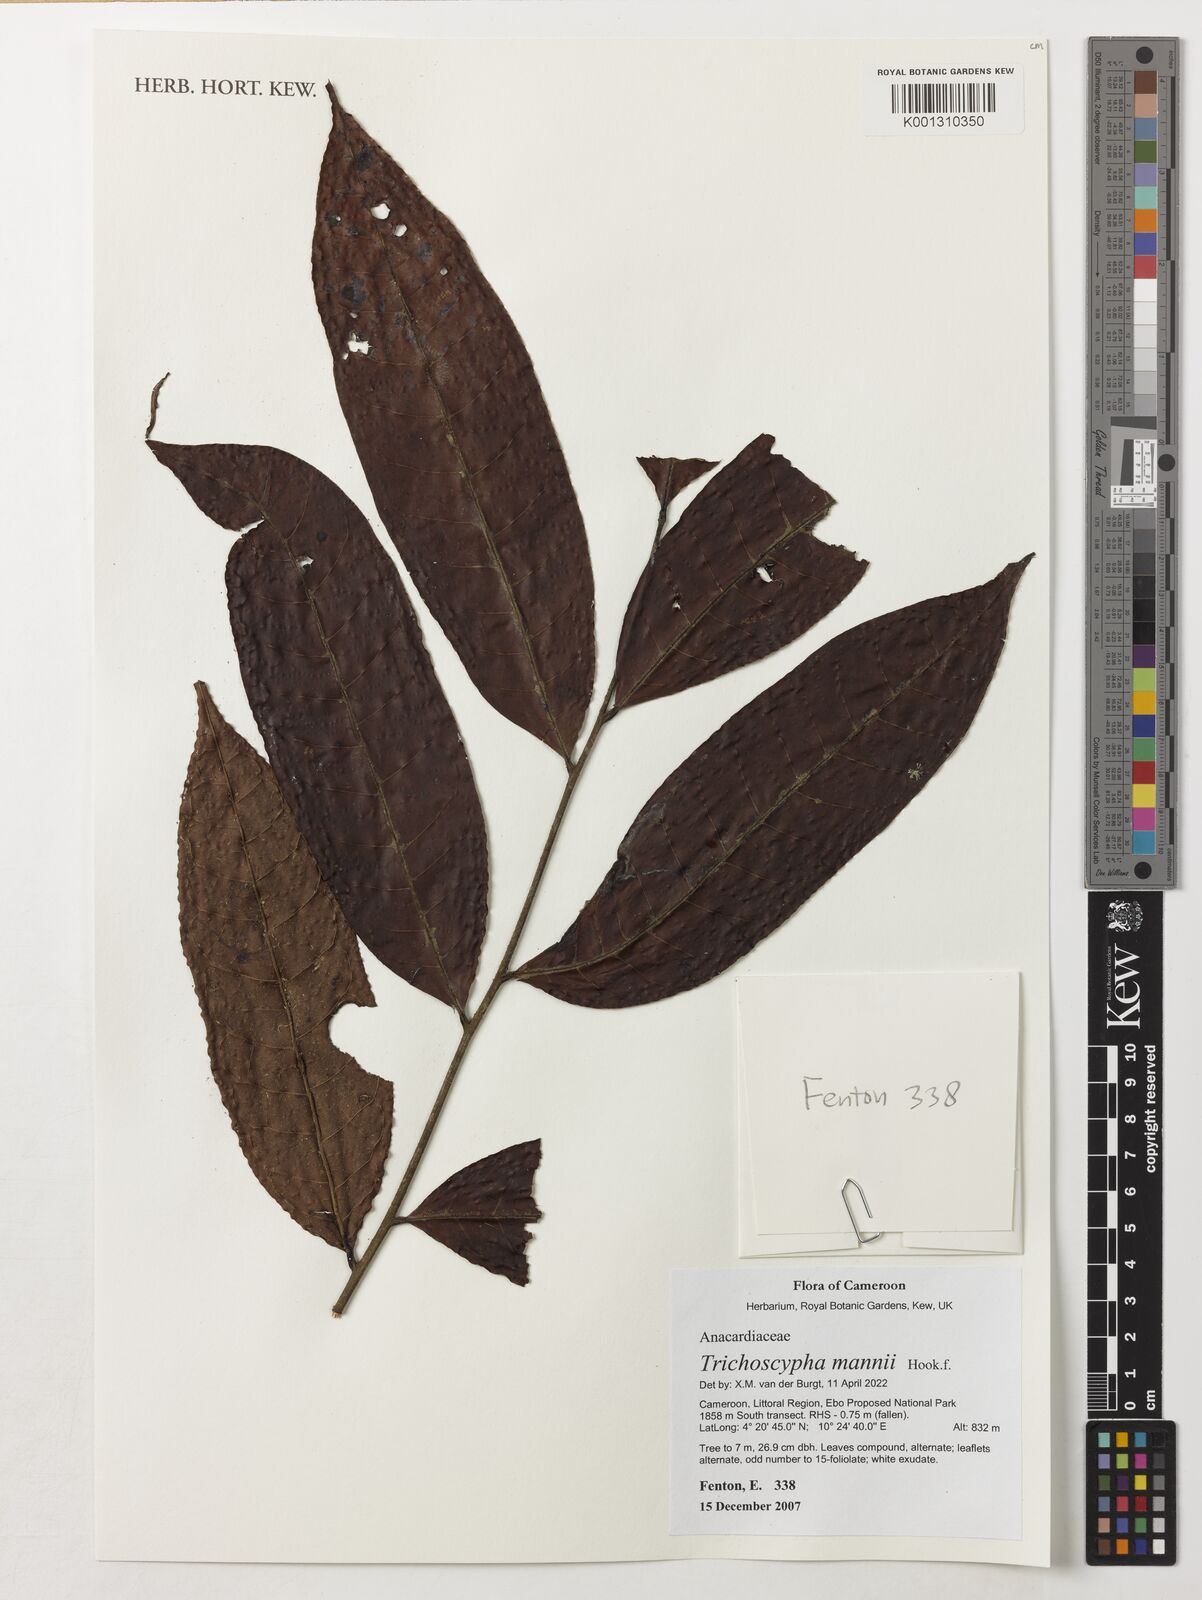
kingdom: Plantae
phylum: Tracheophyta
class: Magnoliopsida
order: Sapindales
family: Anacardiaceae
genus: Trichoscypha
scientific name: Trichoscypha mannii
